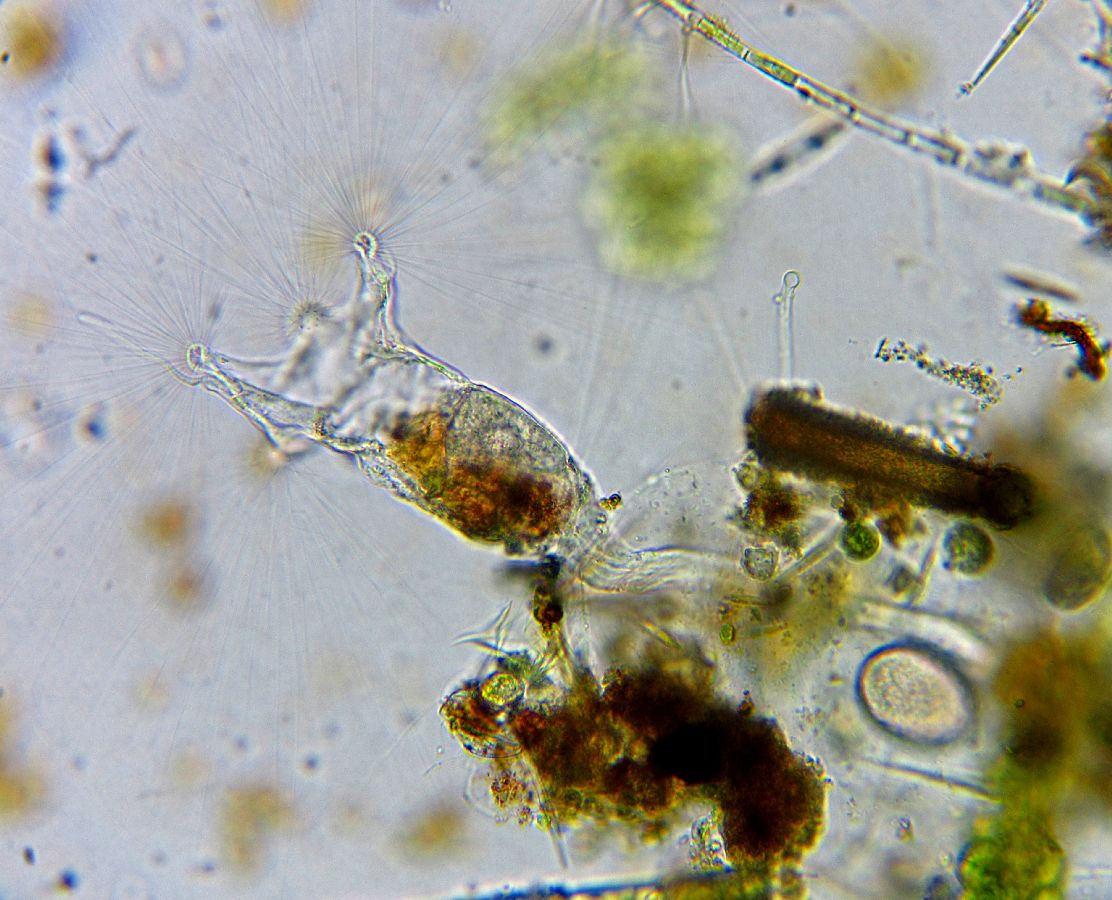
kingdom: Animalia
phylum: Rotifera
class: Eurotatoria
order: Collothecacea
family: Collothecidae
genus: Collotheca
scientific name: Collotheca ornata
